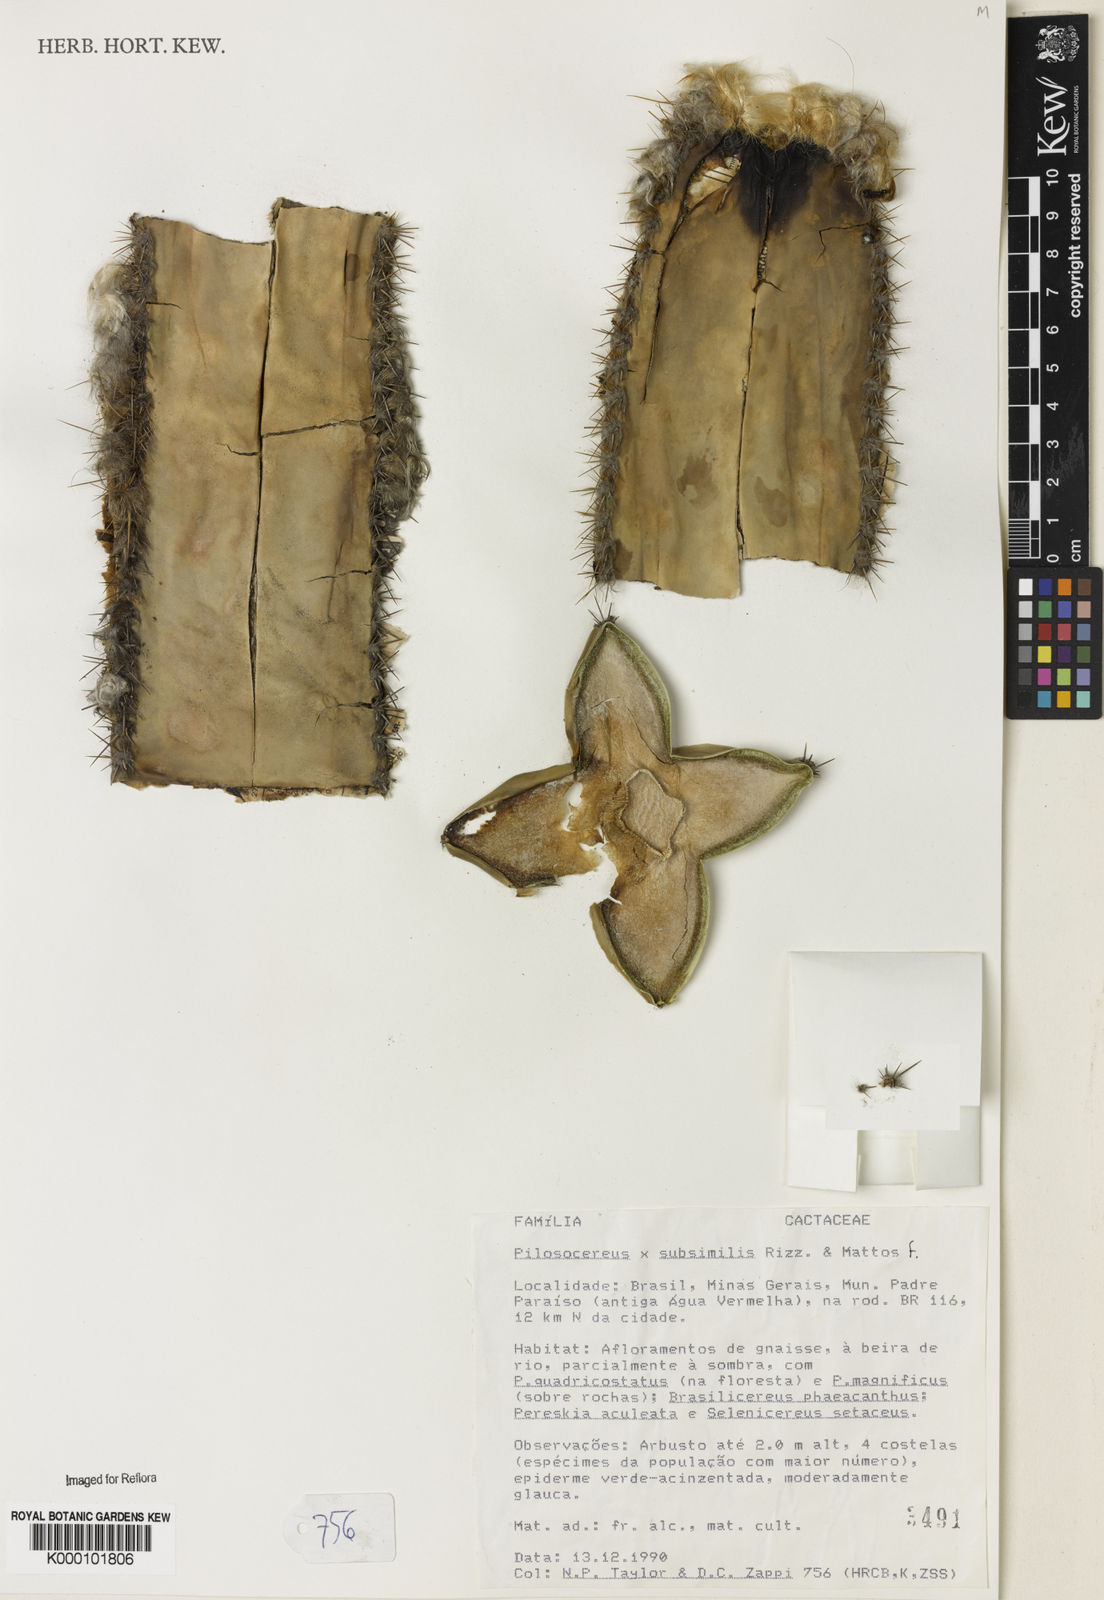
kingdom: Plantae
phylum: Tracheophyta
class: Magnoliopsida
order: Caryophyllales
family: Cactaceae
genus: Pilosocereus
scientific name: Pilosocereus
